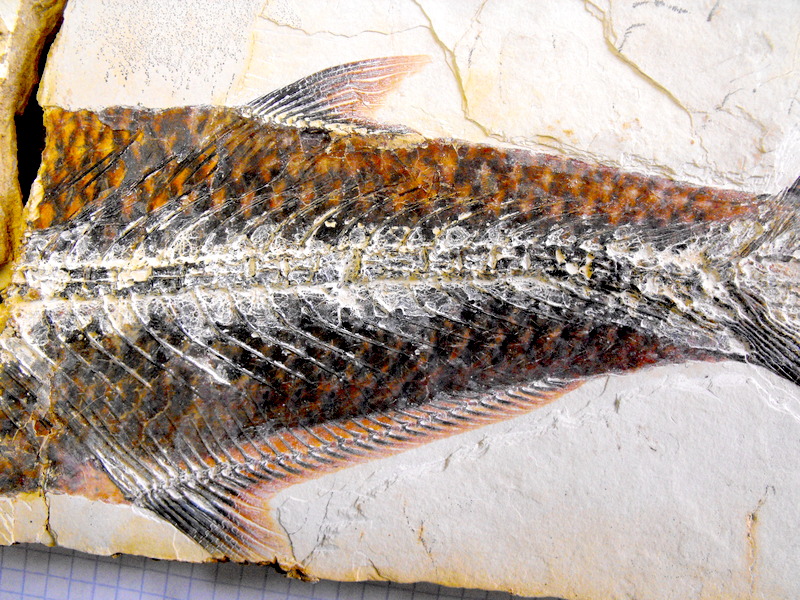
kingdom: Animalia
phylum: Chordata
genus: Thrissops
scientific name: Thrissops formosus
